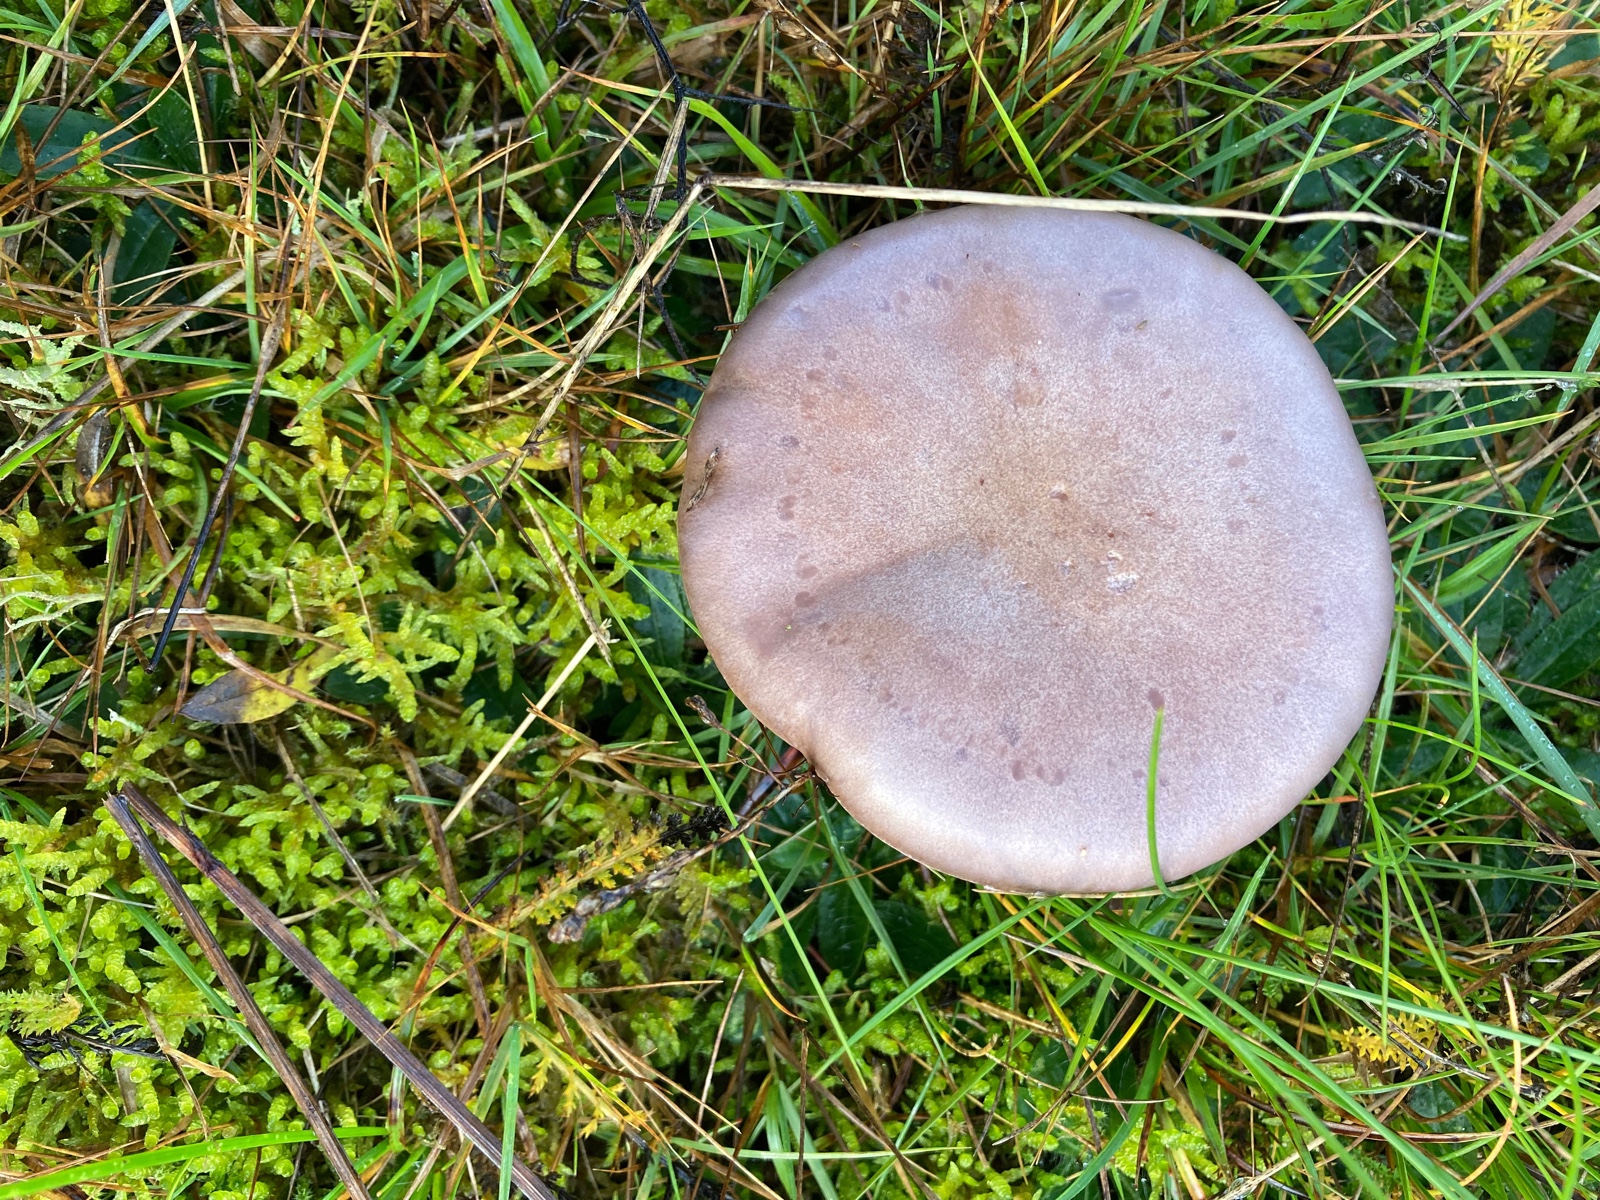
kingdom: Fungi
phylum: Basidiomycota
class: Agaricomycetes
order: Agaricales
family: Tricholomataceae
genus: Lepista
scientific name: Lepista nuda
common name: violet hekseringshat
